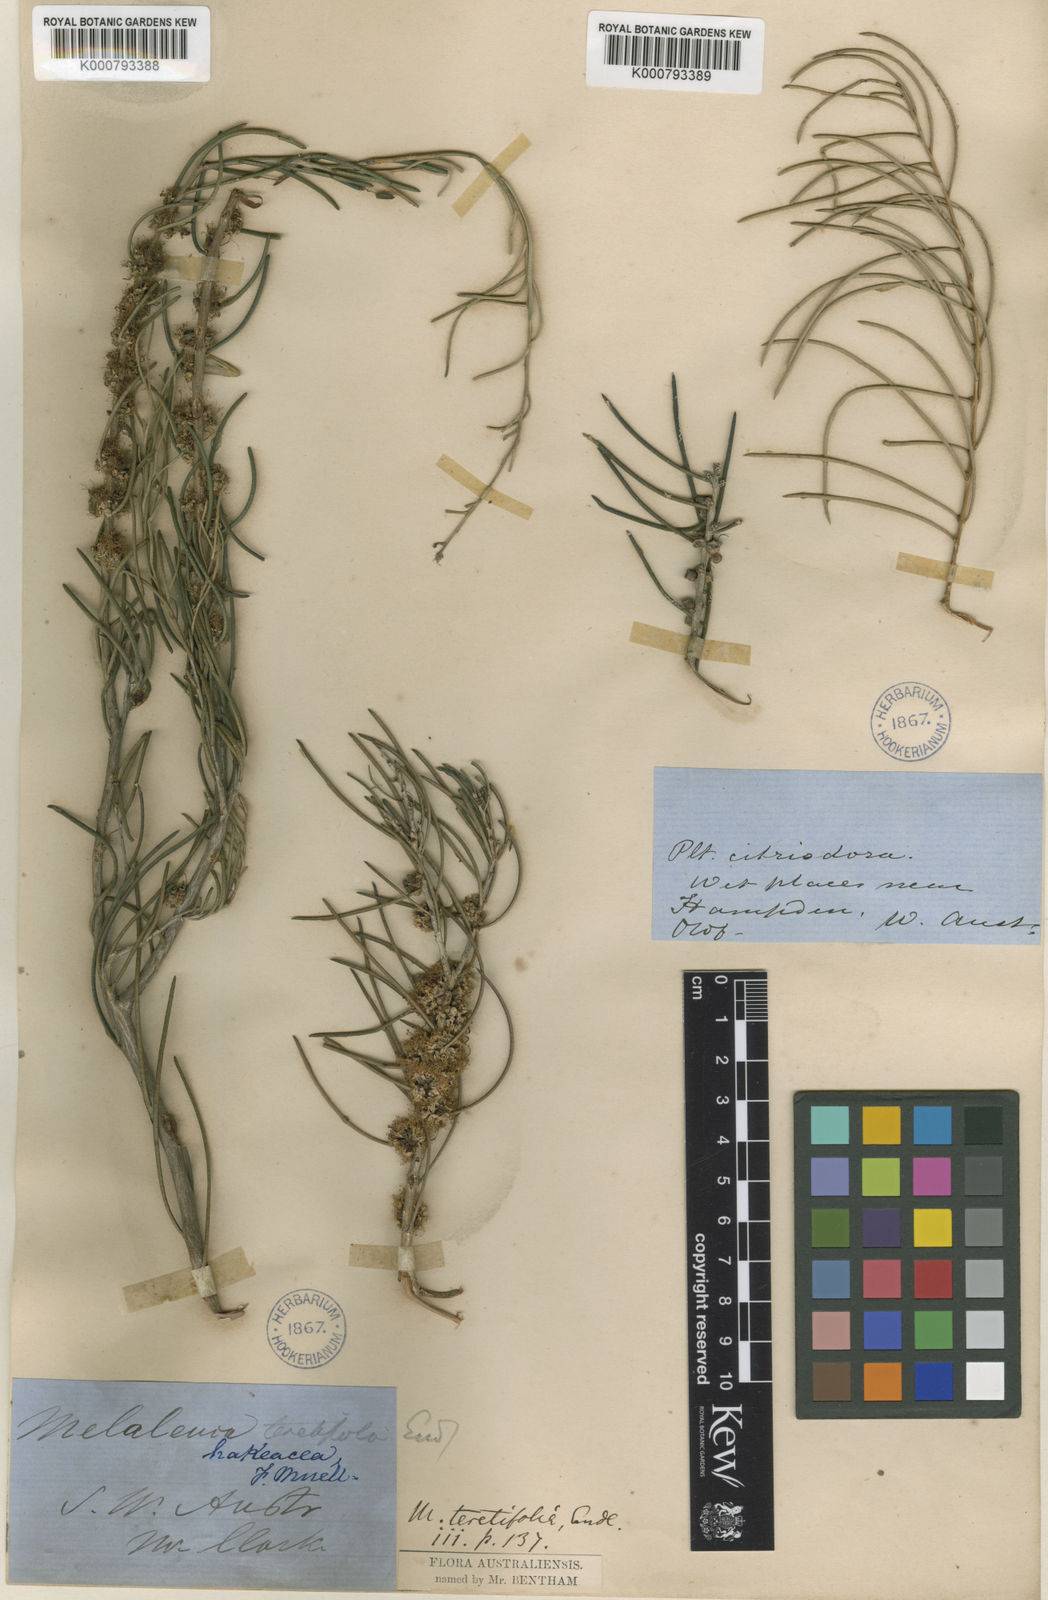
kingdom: Plantae
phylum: Tracheophyta
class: Magnoliopsida
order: Myrtales
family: Myrtaceae
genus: Melaleuca
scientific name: Melaleuca teretifolia
